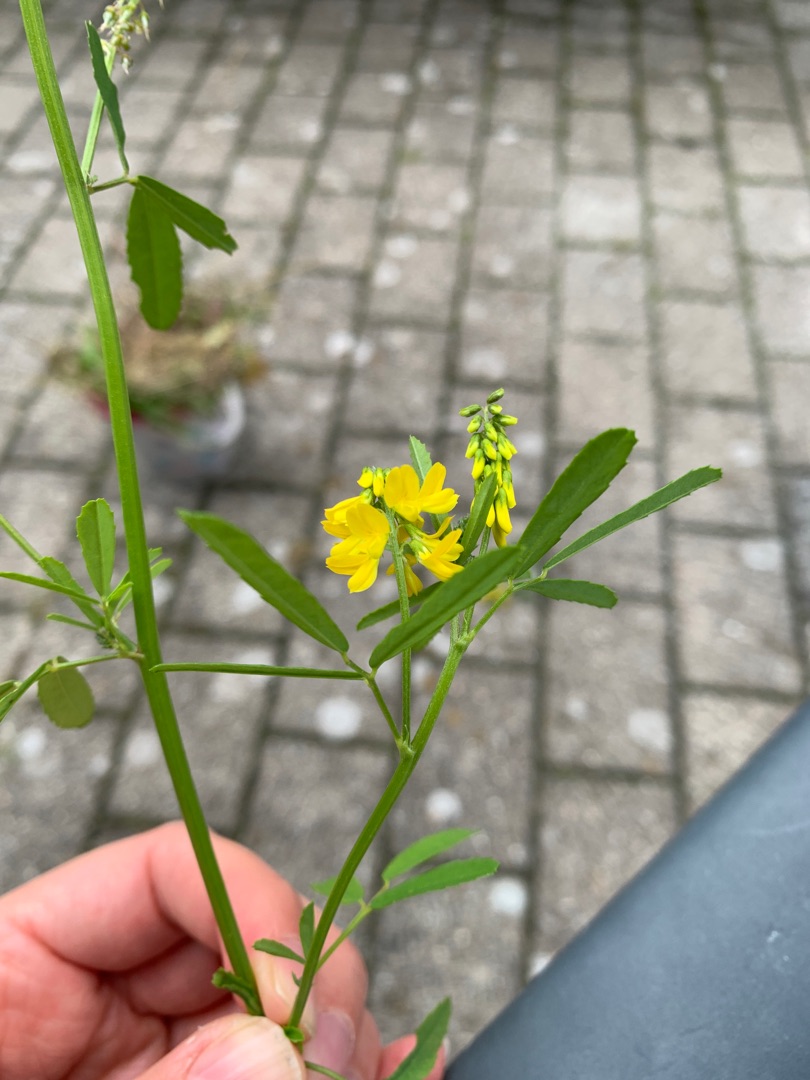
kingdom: Plantae
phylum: Tracheophyta
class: Magnoliopsida
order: Fabales
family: Fabaceae
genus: Melilotus
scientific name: Melilotus altissimus
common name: Høj stenkløver
